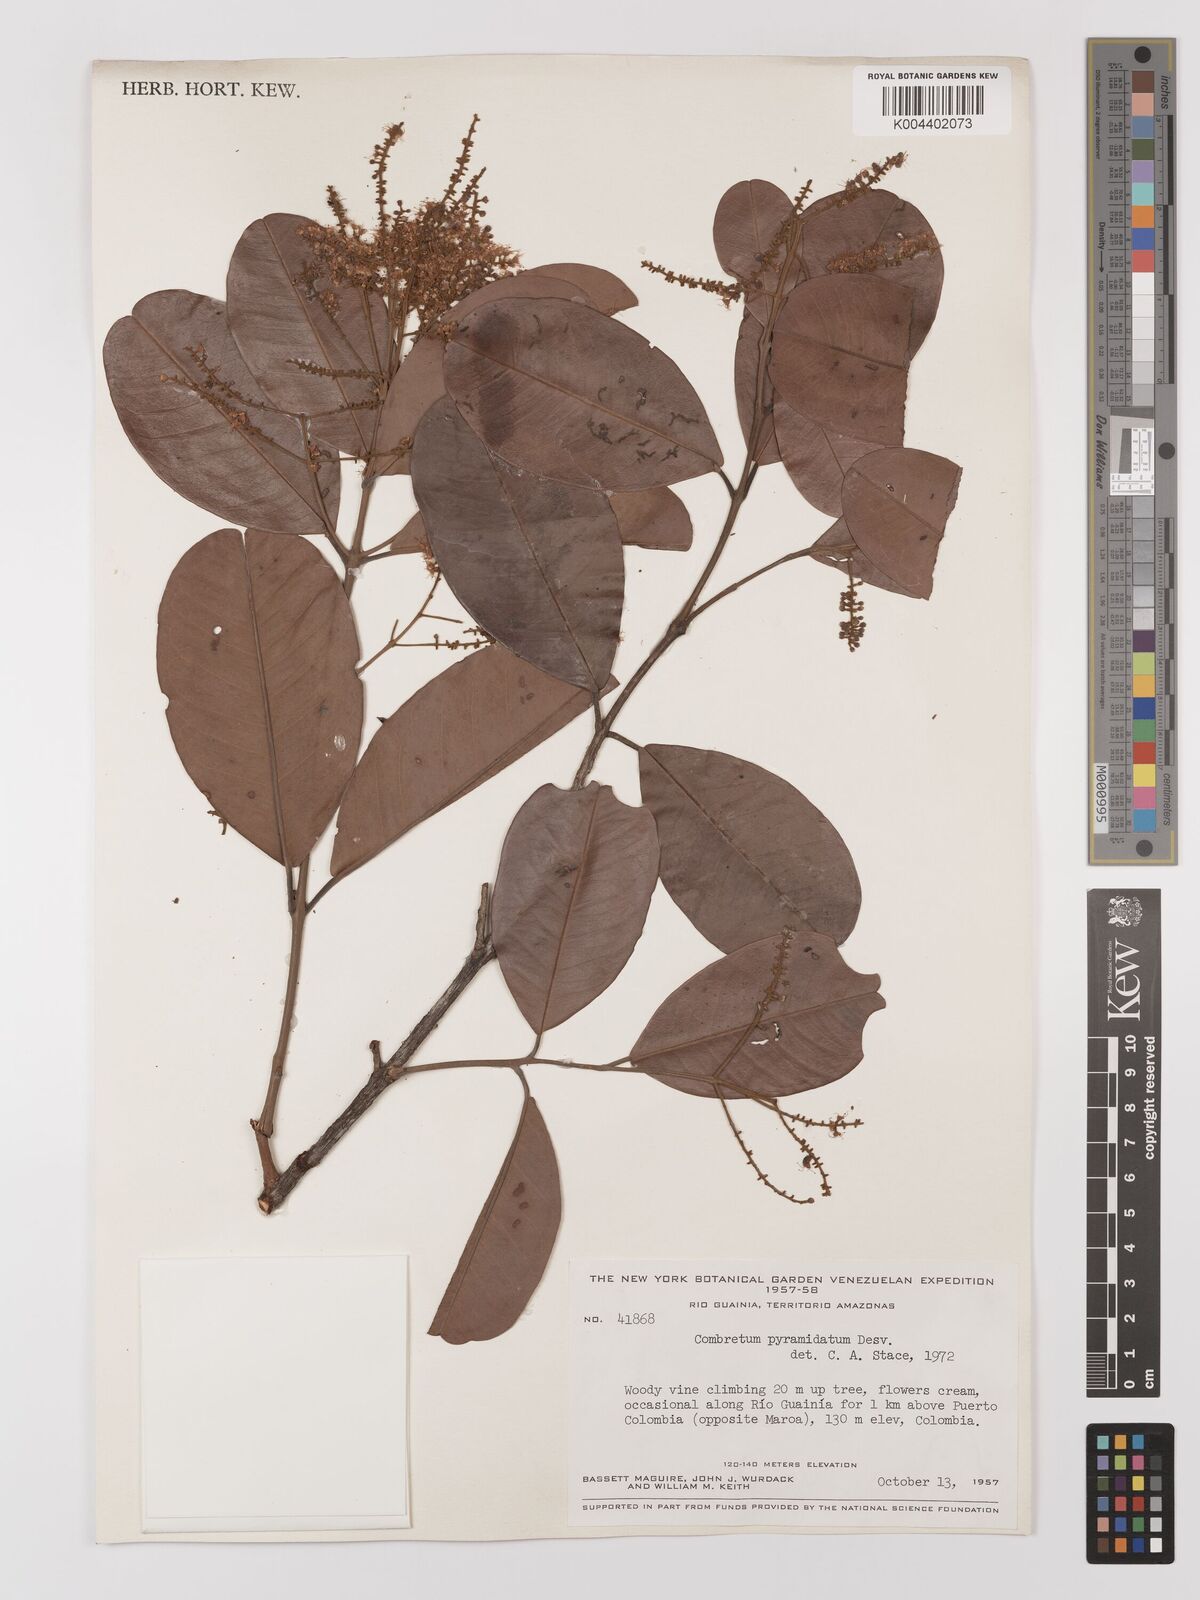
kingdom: Plantae
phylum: Tracheophyta
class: Magnoliopsida
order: Myrtales
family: Combretaceae
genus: Combretum
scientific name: Combretum pyramidatum
